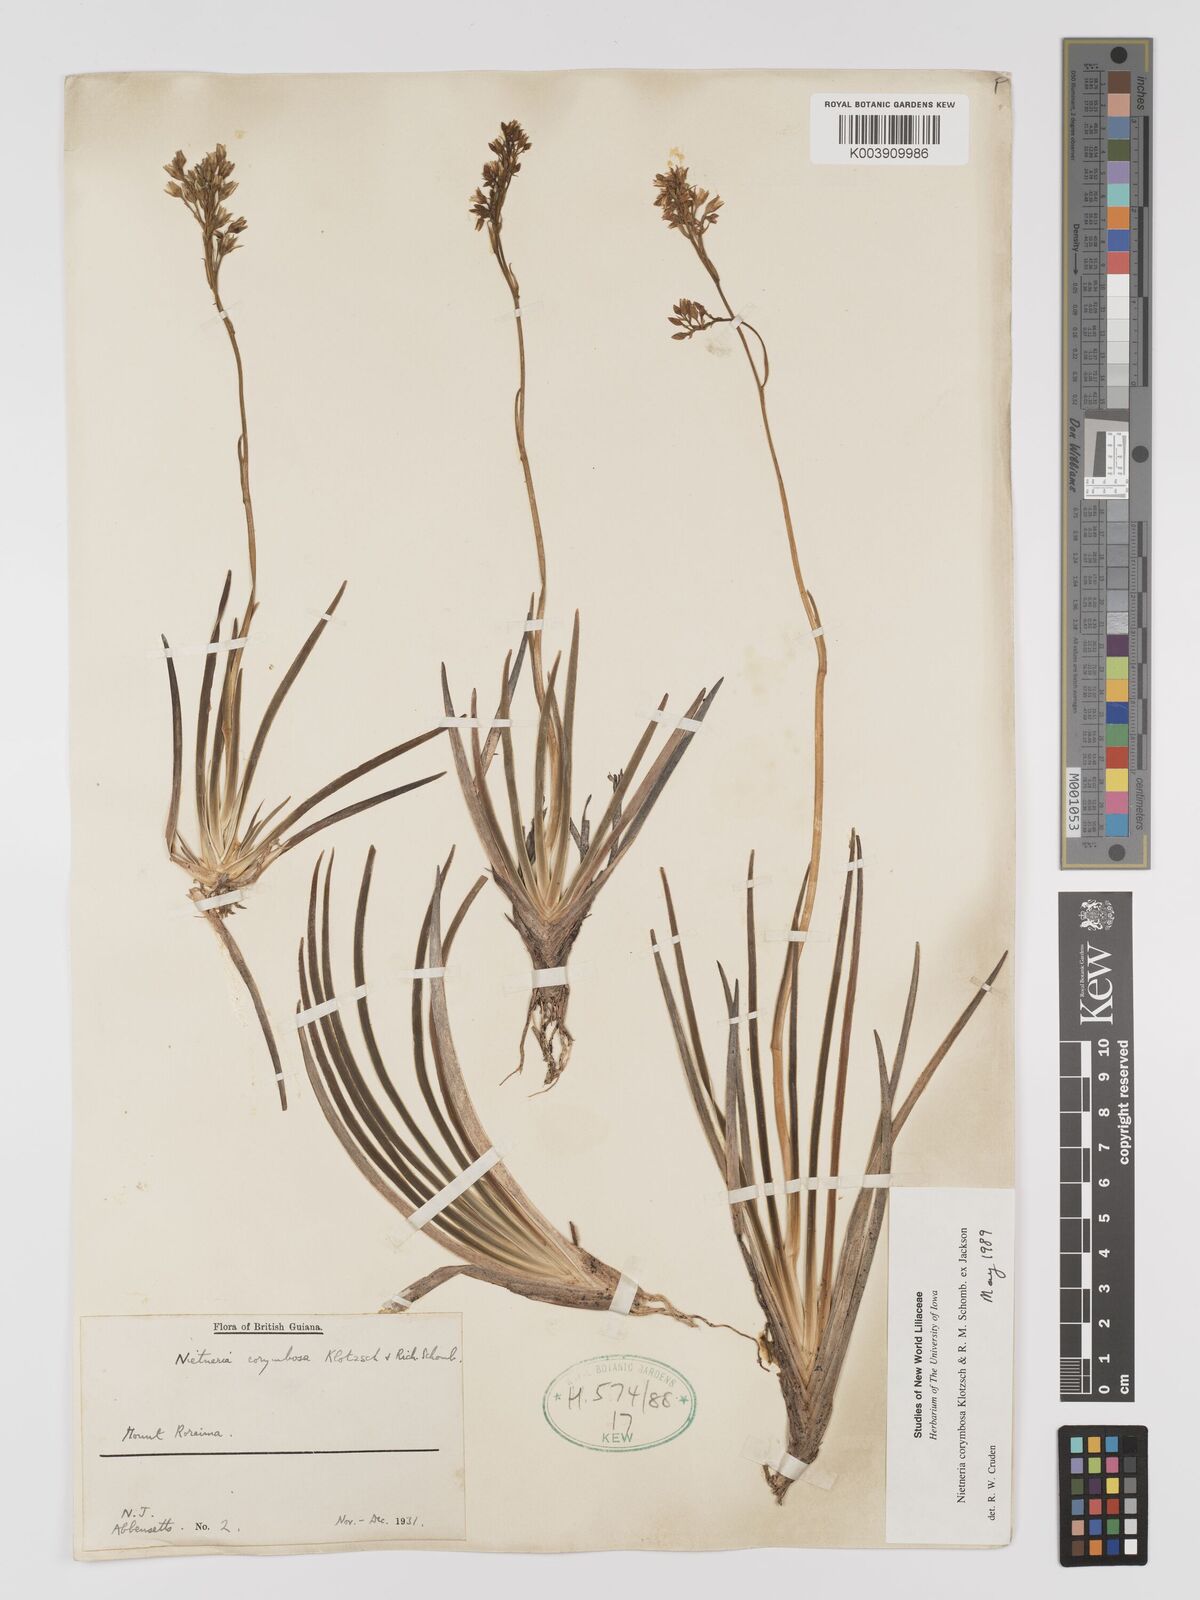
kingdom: Plantae
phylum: Tracheophyta
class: Liliopsida
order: Dioscoreales
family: Nartheciaceae
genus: Nietneria
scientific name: Nietneria corymbosa
